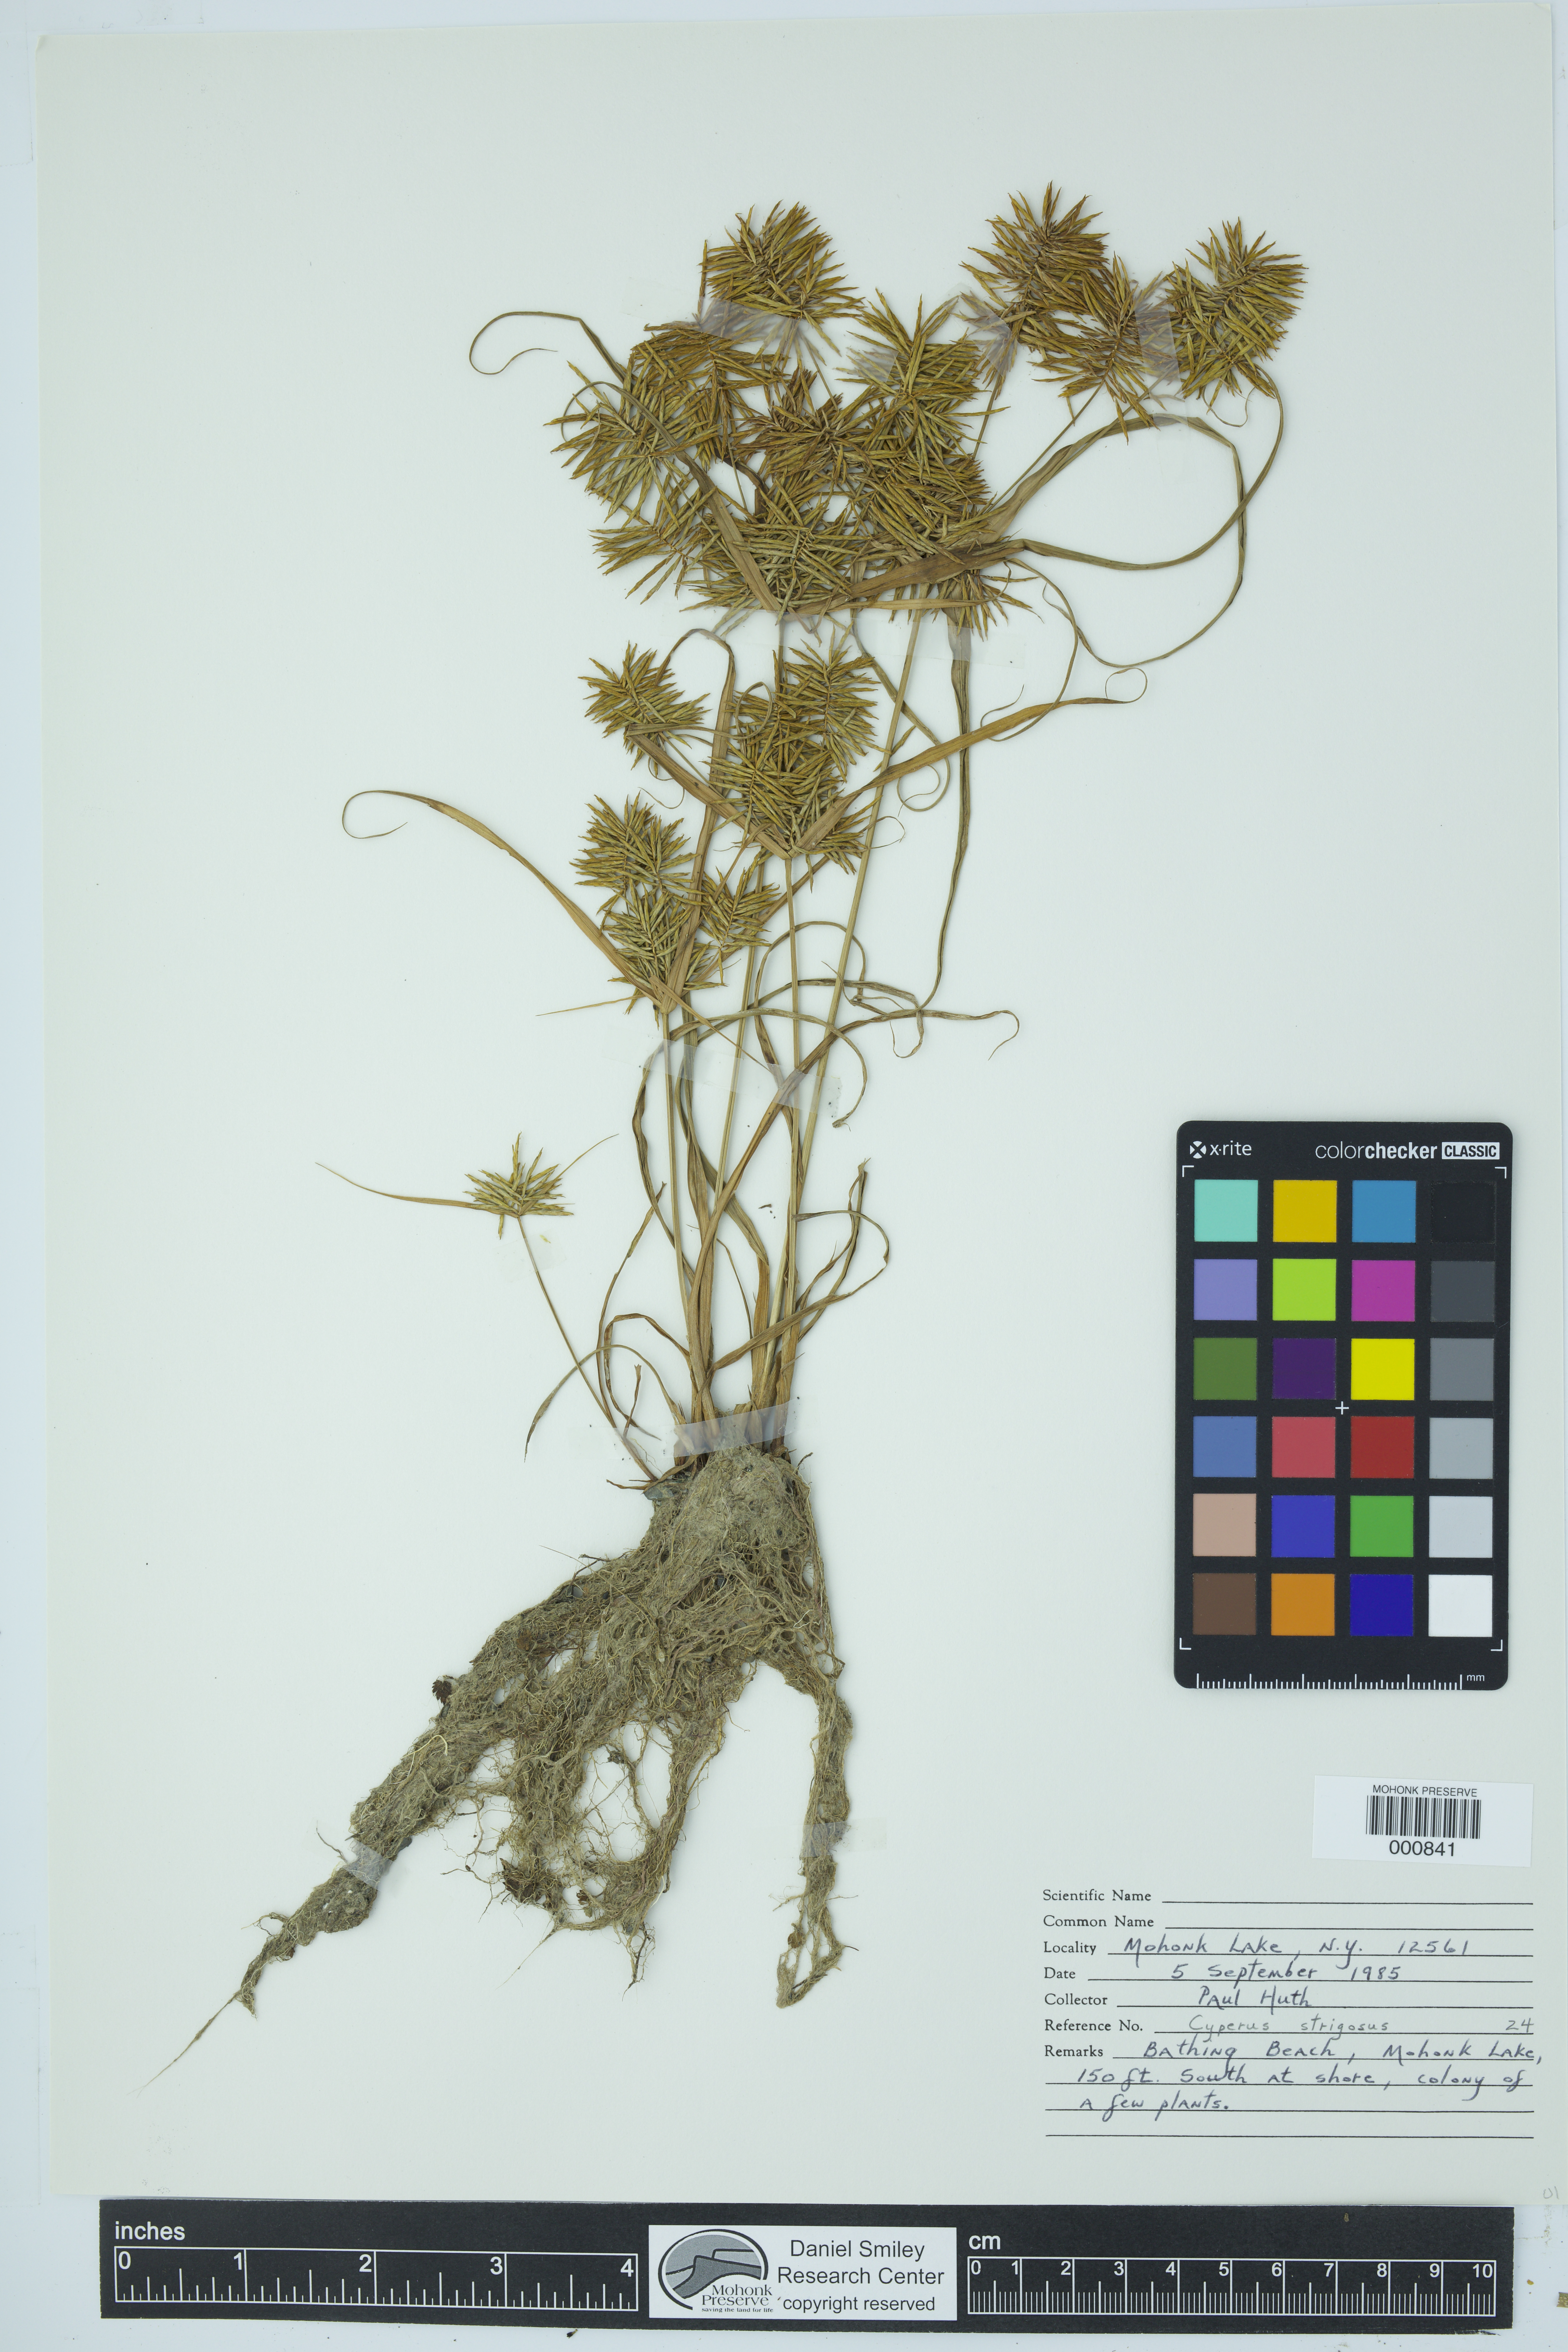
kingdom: Plantae
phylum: Tracheophyta
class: Liliopsida
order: Poales
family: Cyperaceae
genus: Cyperus
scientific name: Cyperus strigosus
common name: False nutsedge
